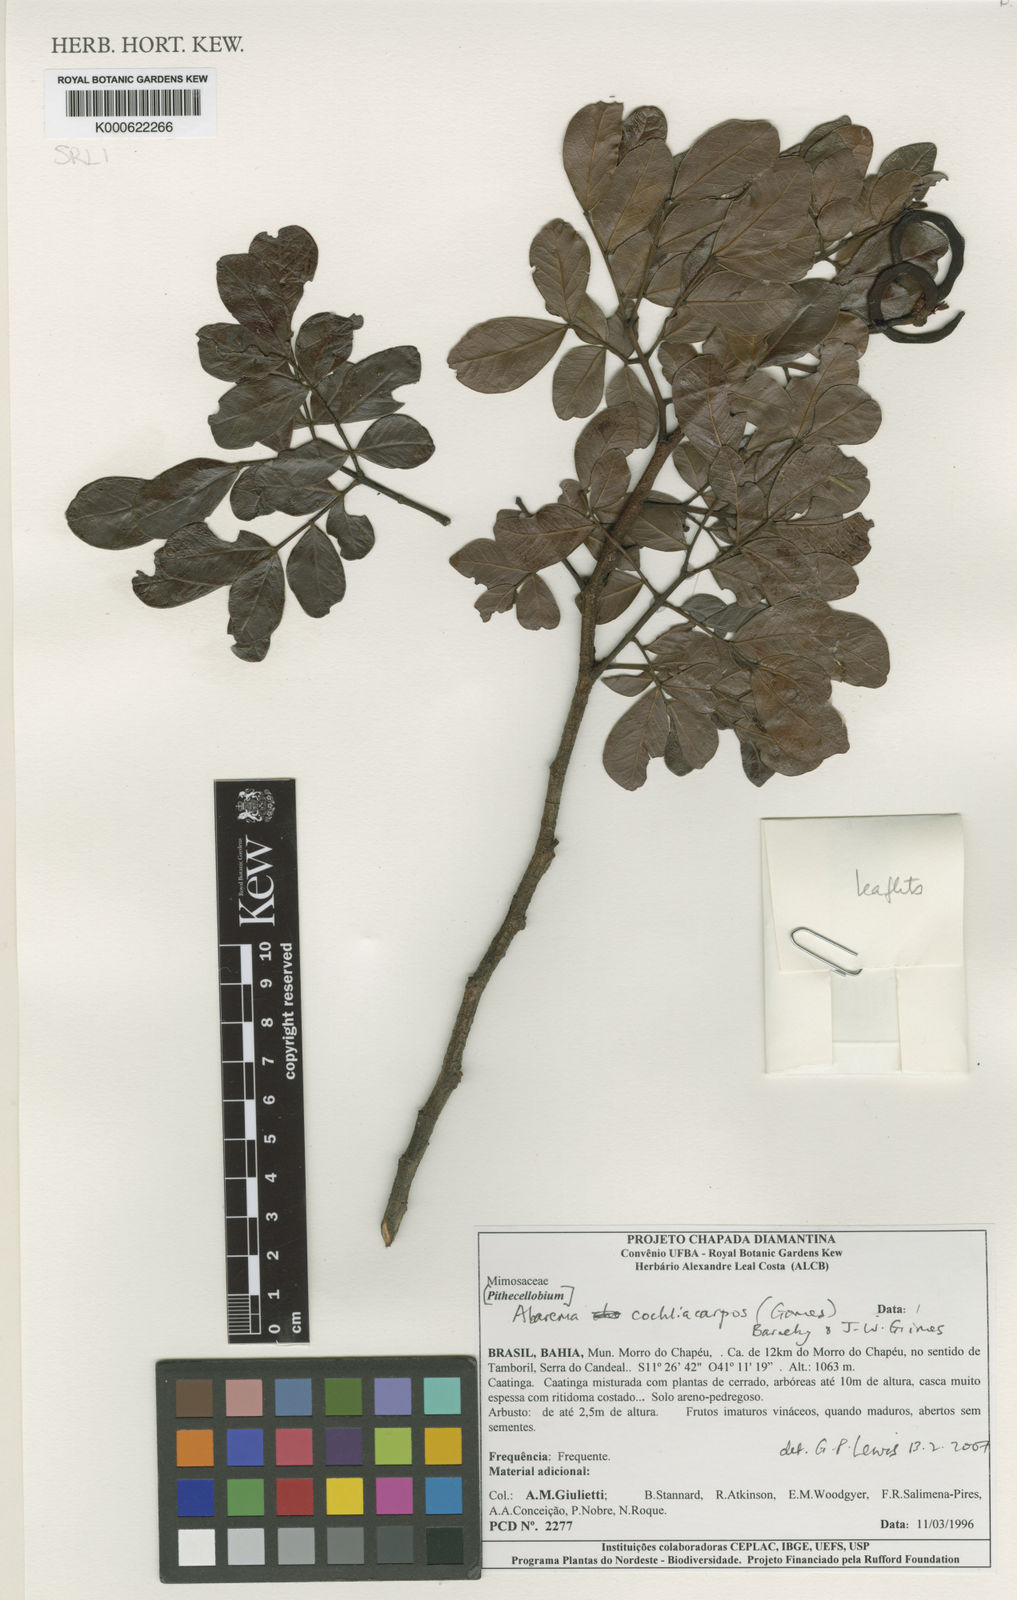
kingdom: Plantae
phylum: Tracheophyta
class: Magnoliopsida
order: Fabales
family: Fabaceae
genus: Abarema
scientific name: Abarema
